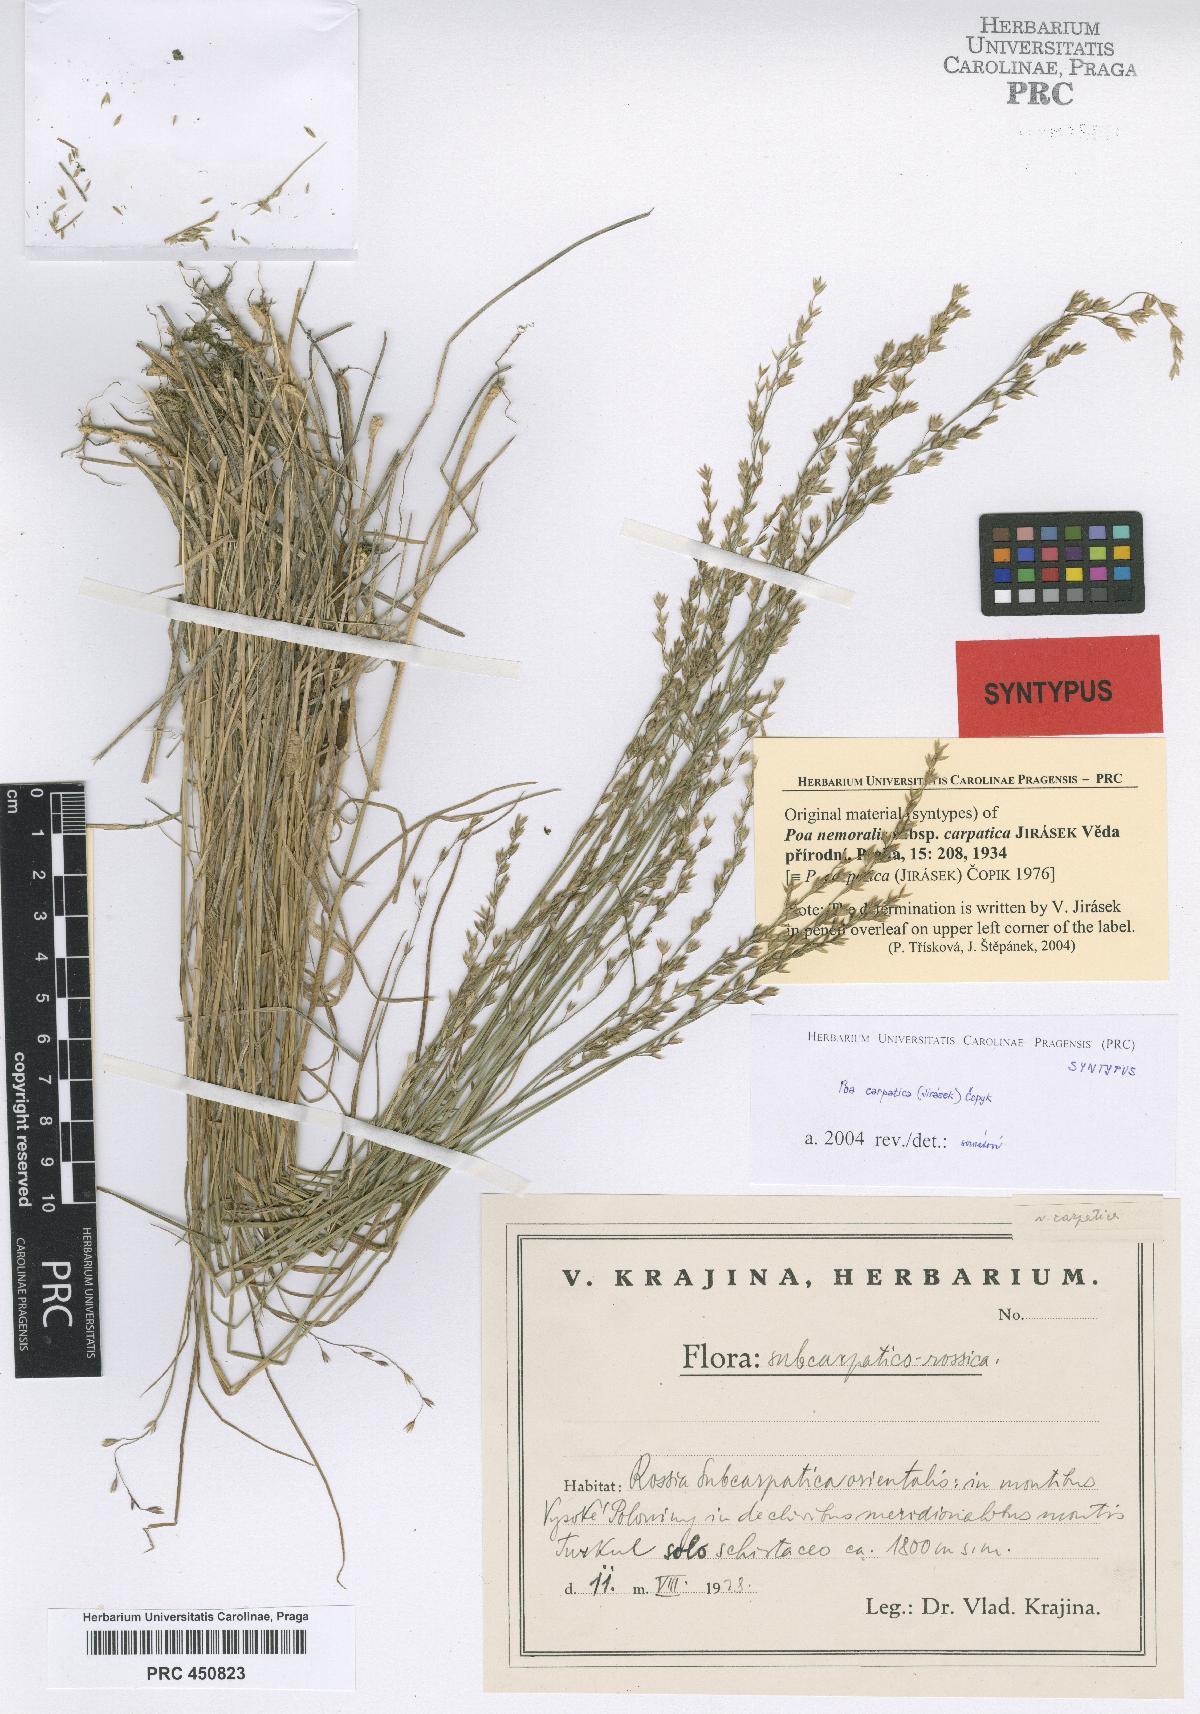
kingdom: Plantae
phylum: Tracheophyta
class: Liliopsida
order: Poales
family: Poaceae
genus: Poa
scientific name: Poa carpatica
